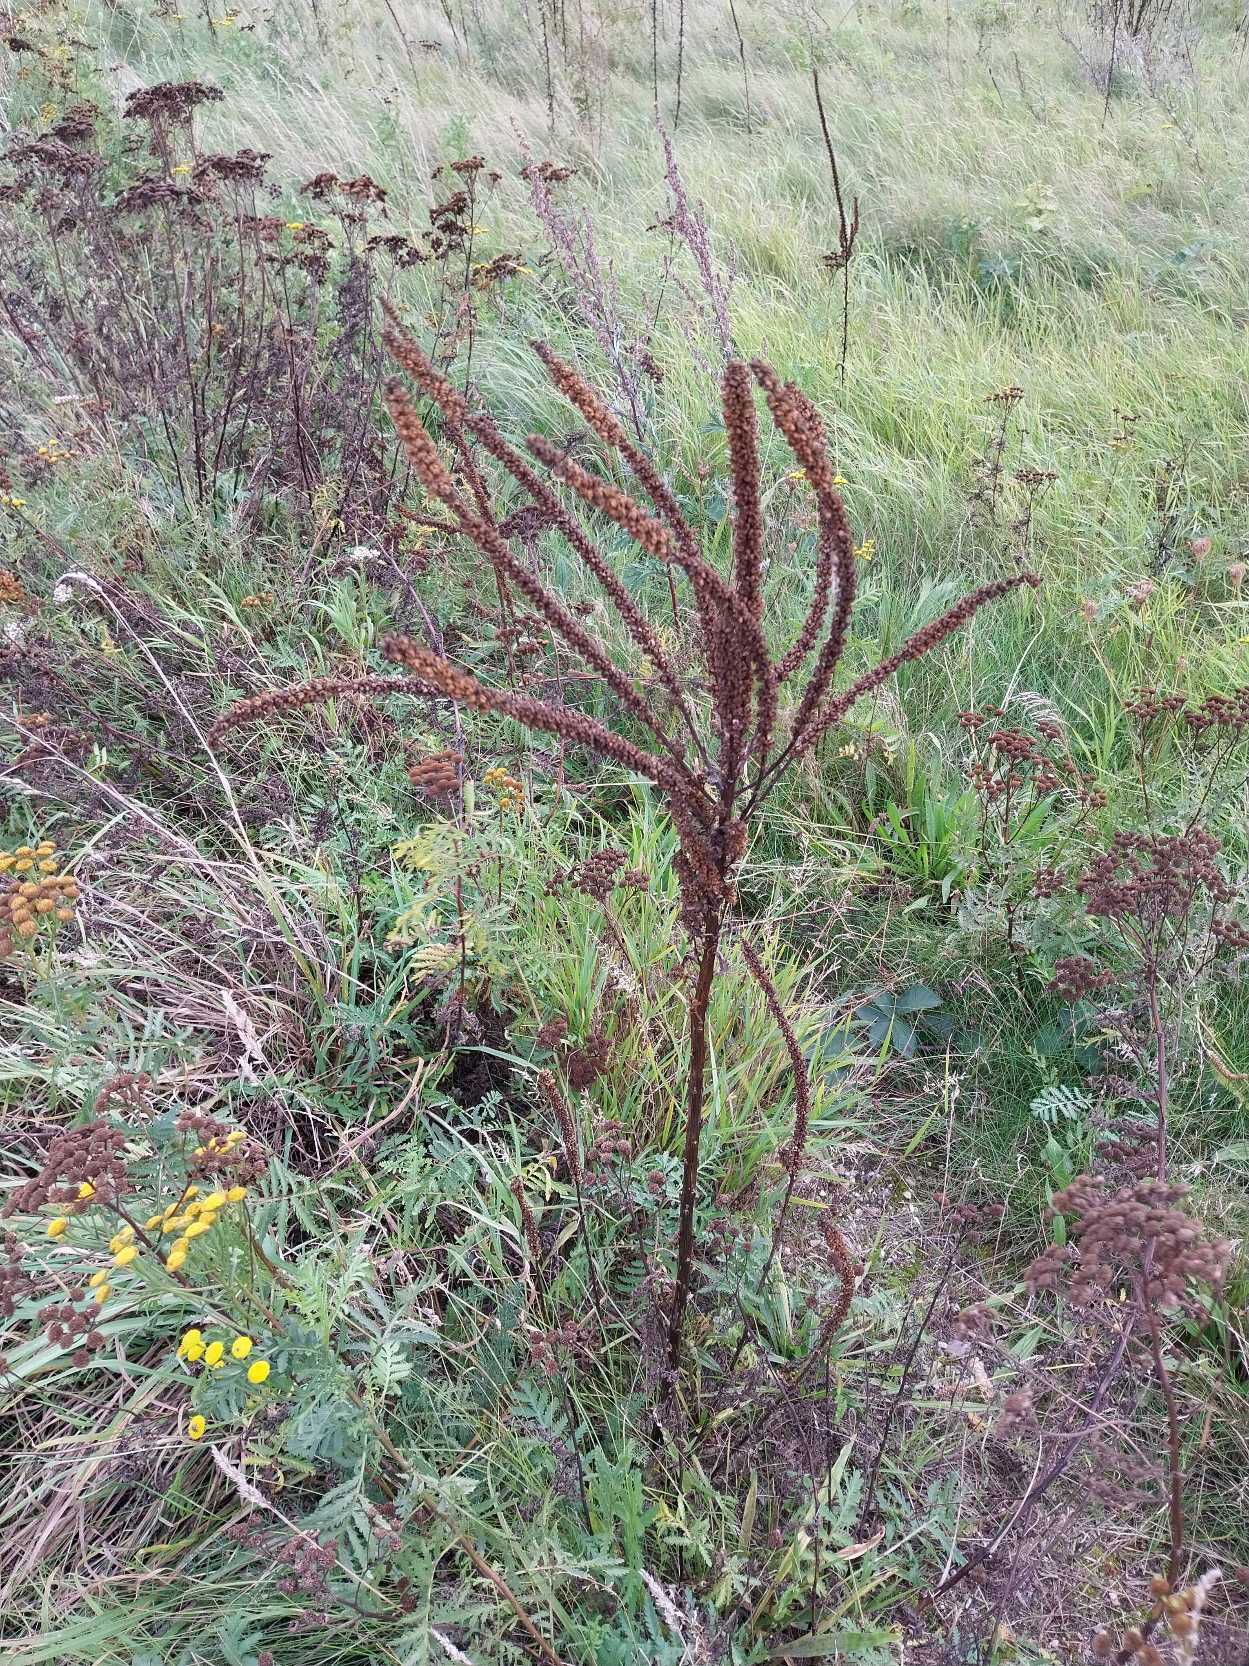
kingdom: Plantae
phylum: Tracheophyta
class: Magnoliopsida
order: Brassicales
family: Resedaceae
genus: Reseda
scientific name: Reseda luteola
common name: Farve-reseda
